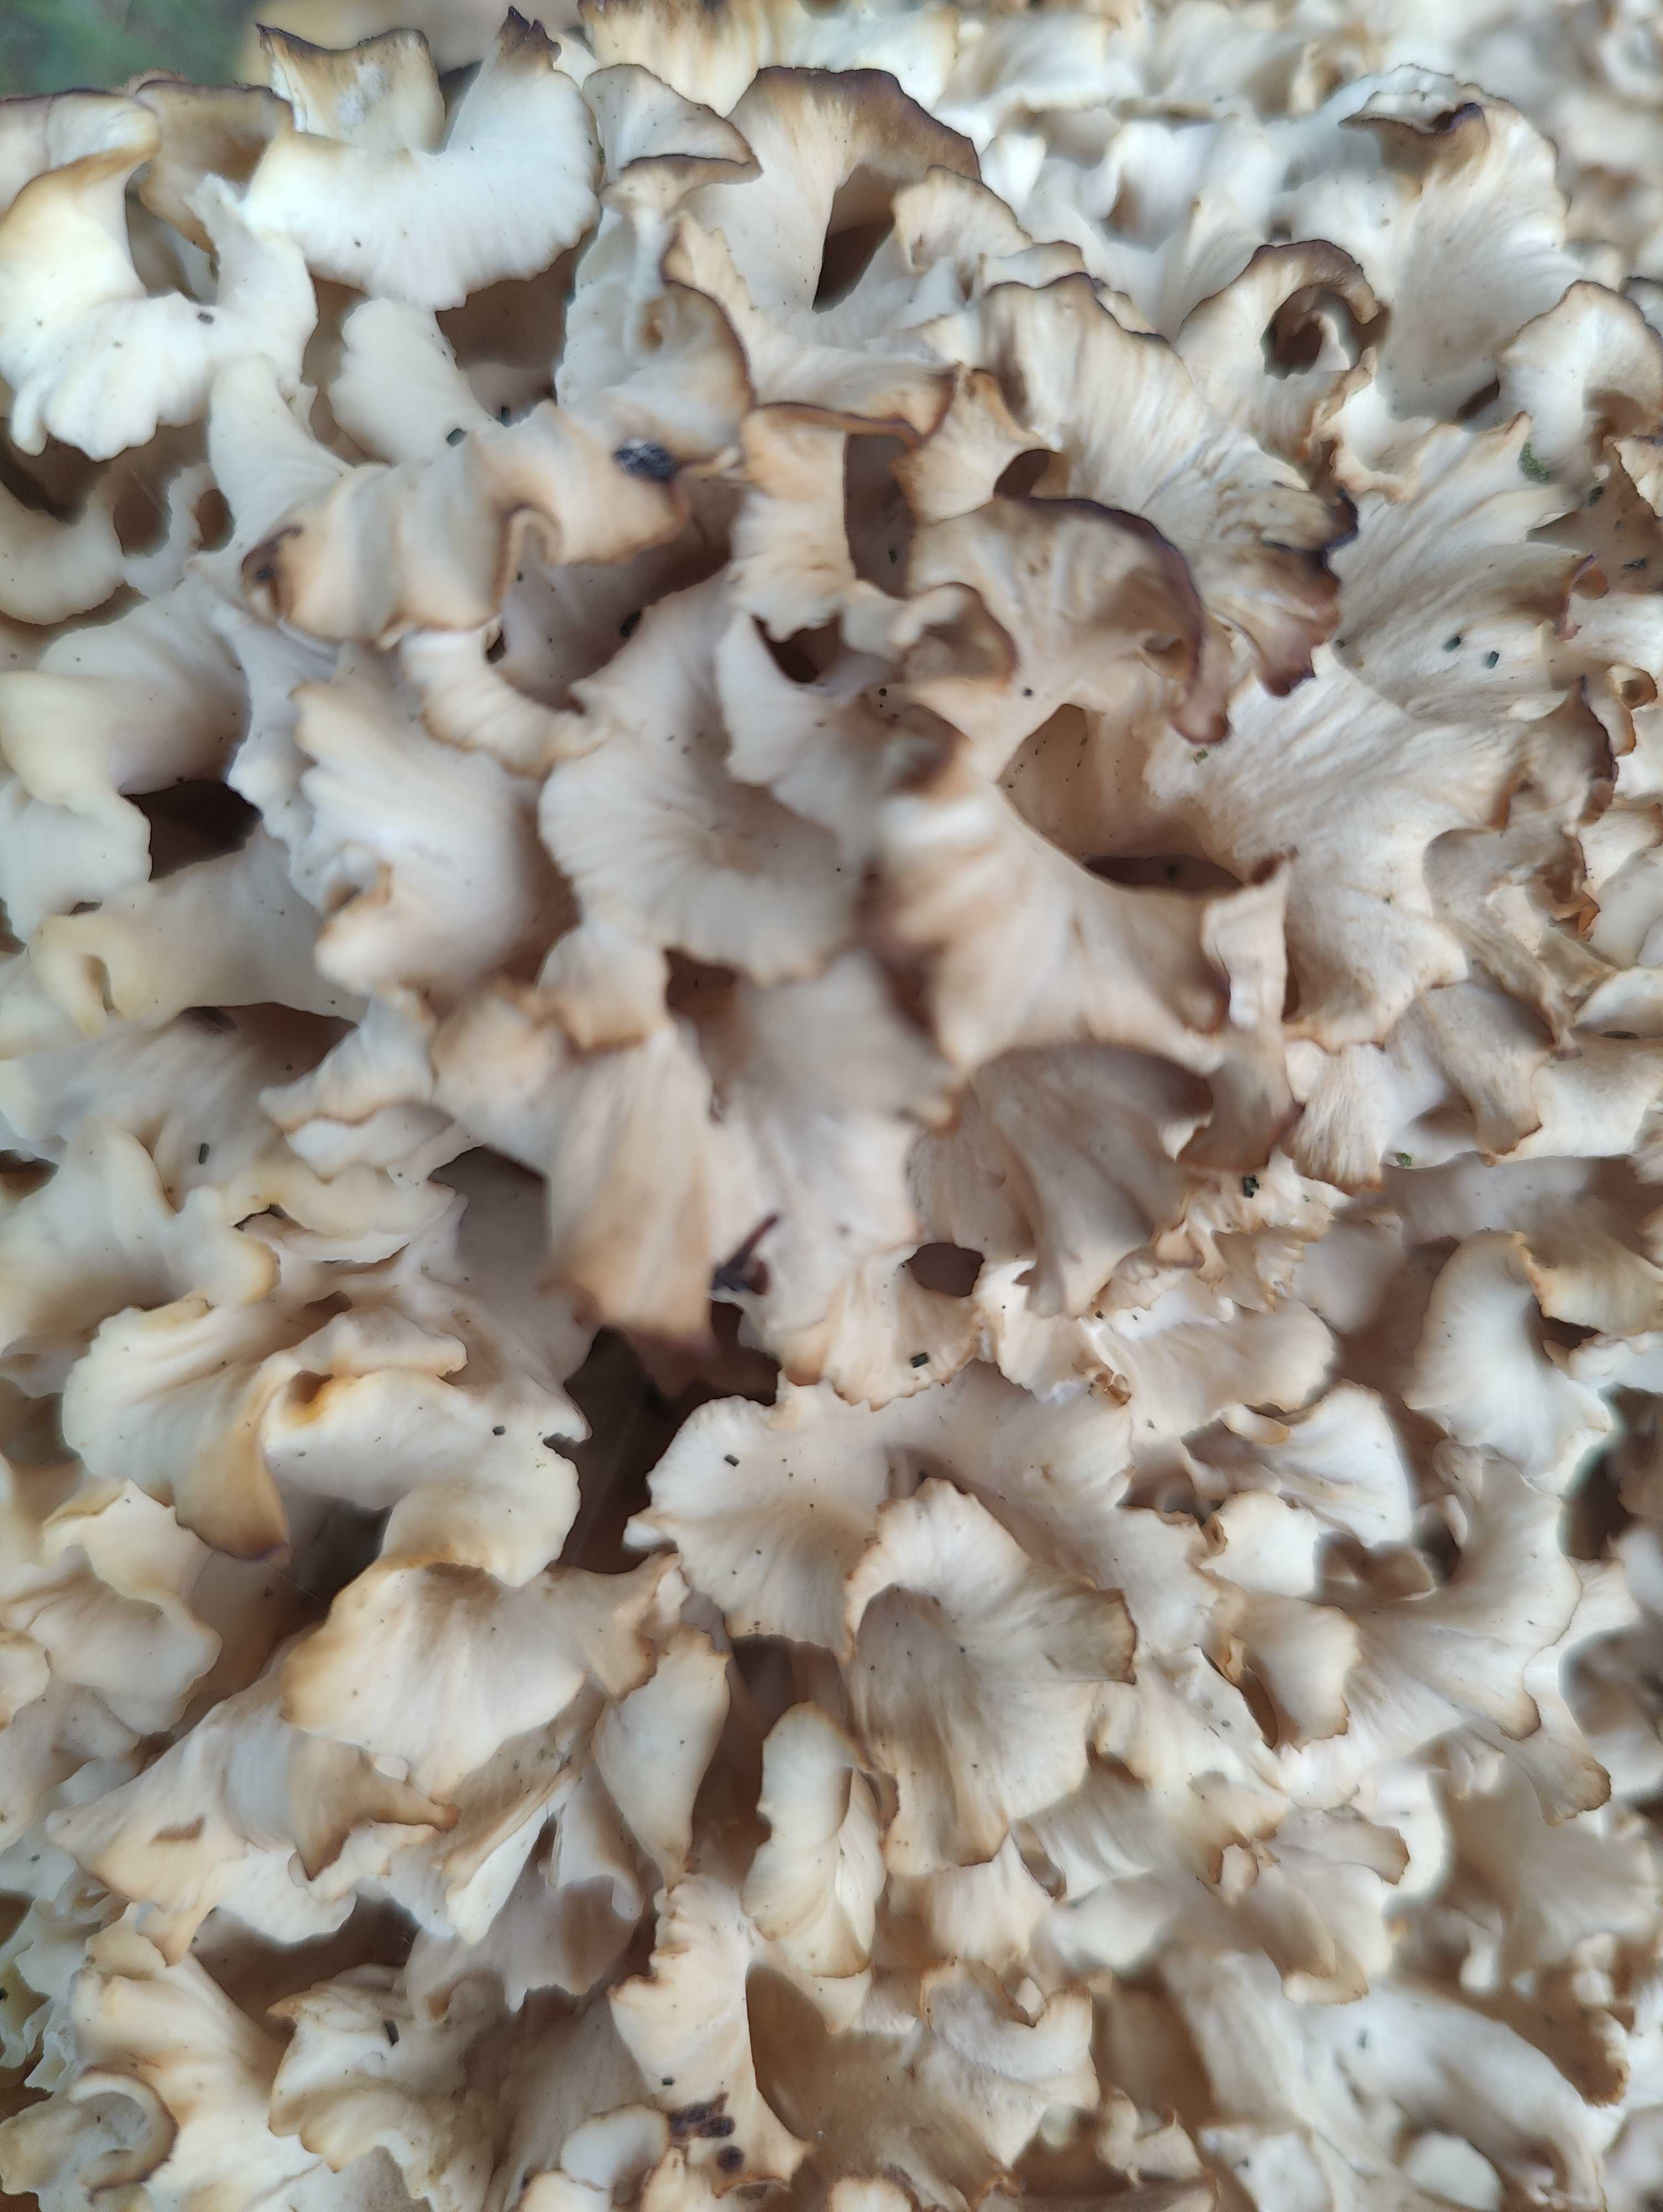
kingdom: Fungi
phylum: Basidiomycota
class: Agaricomycetes
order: Polyporales
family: Sparassidaceae
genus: Sparassis
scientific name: Sparassis crispa
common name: kruset blomkålssvamp
